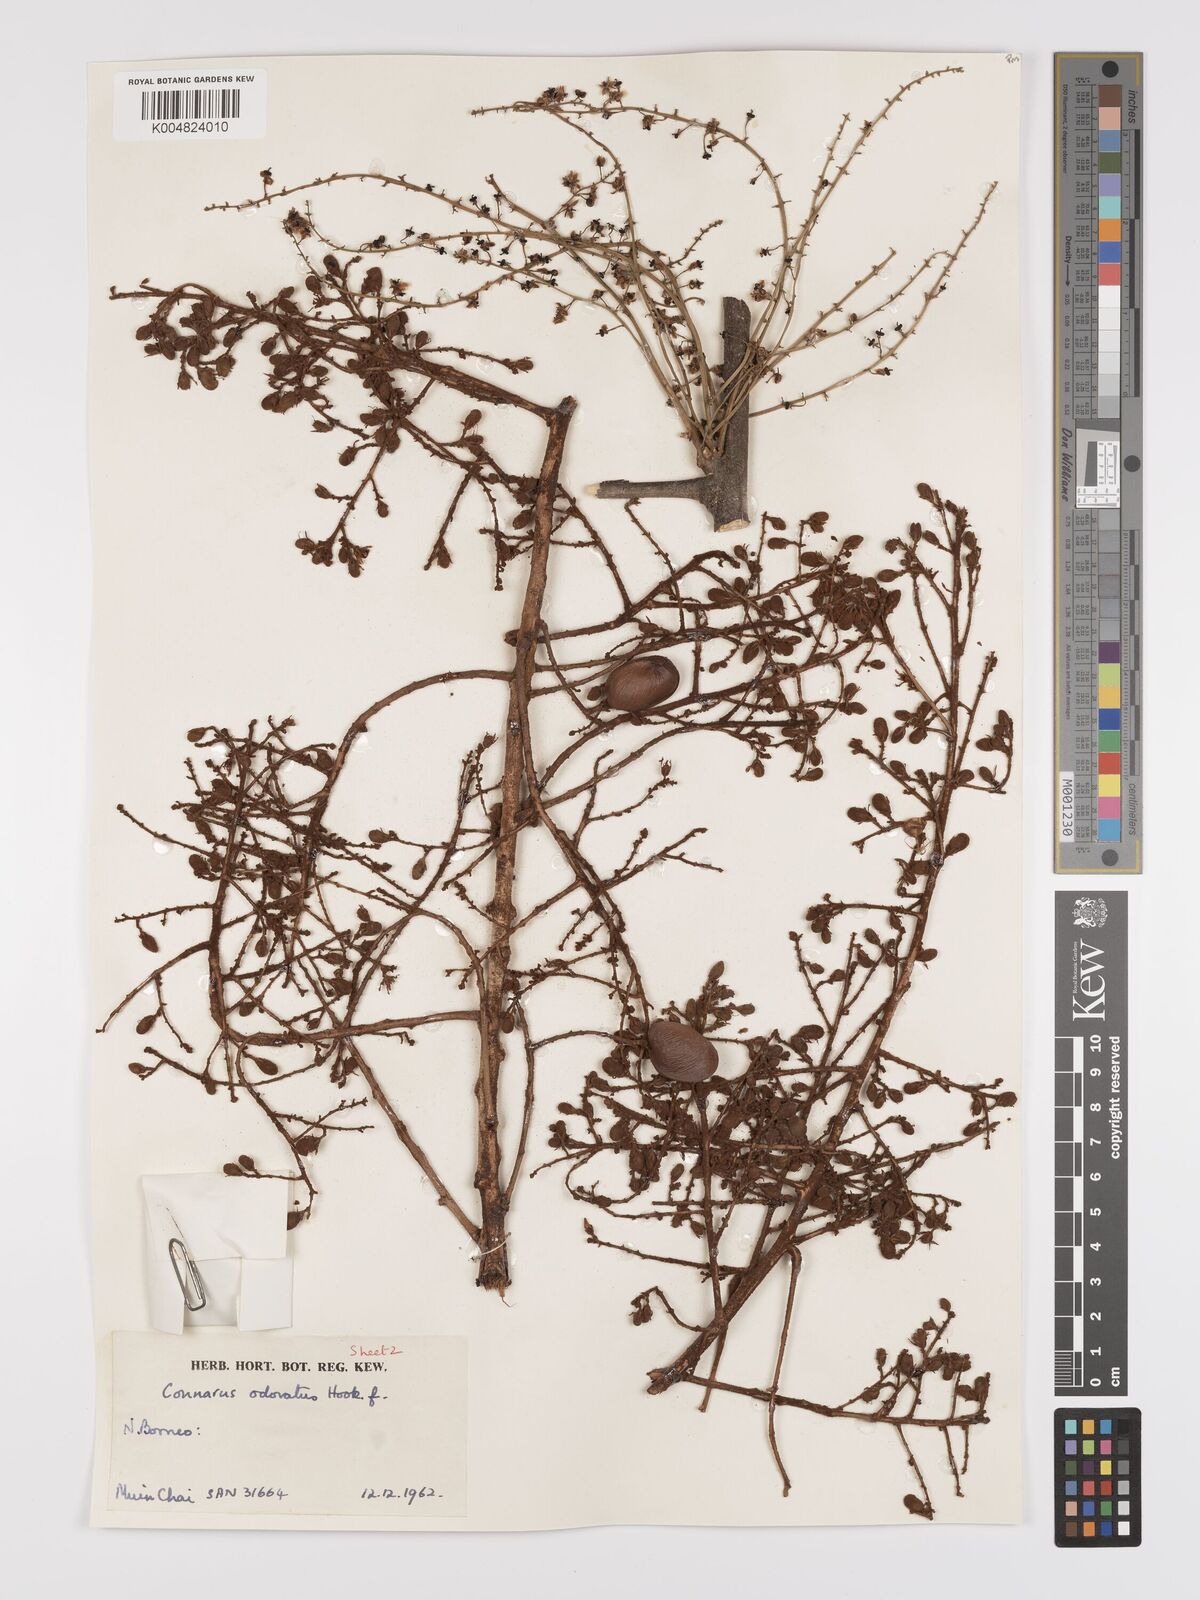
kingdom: Plantae
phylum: Tracheophyta
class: Magnoliopsida
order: Oxalidales
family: Connaraceae
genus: Connarus
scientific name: Connarus odoratus
